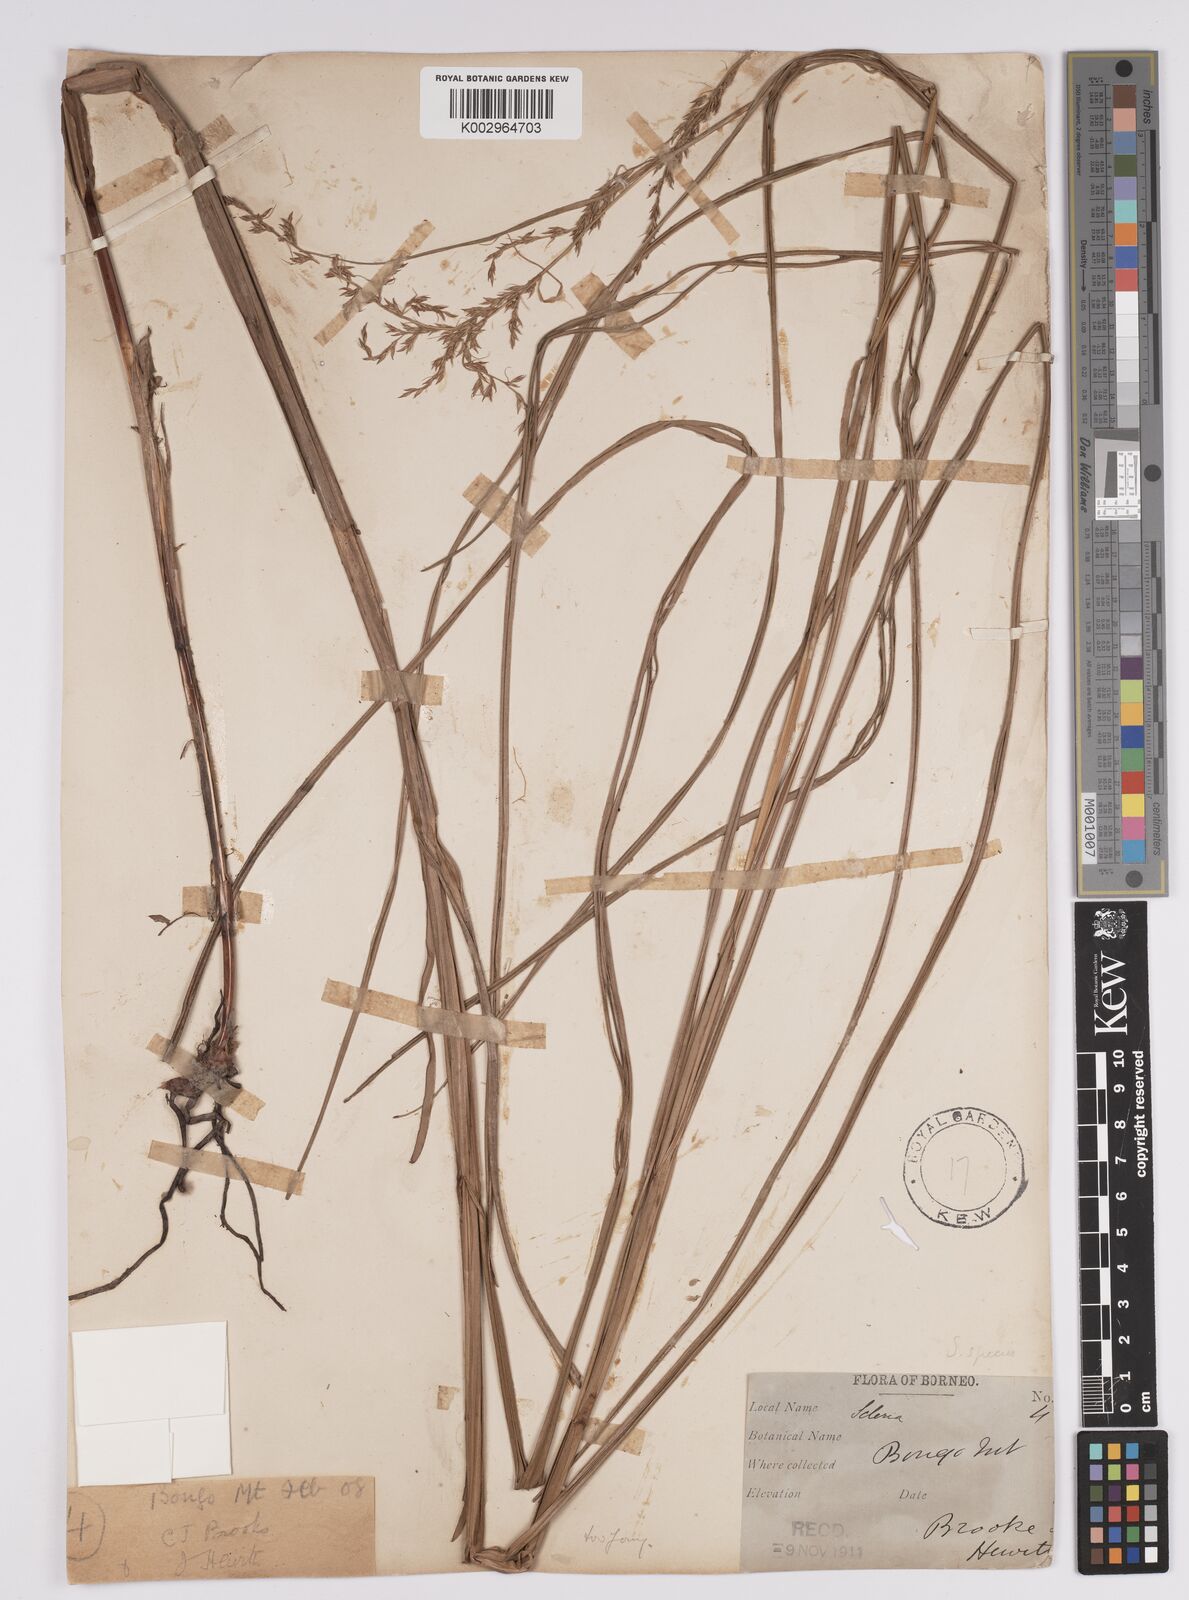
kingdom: Plantae
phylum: Tracheophyta
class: Liliopsida
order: Poales
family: Cyperaceae
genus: Scleria
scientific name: Scleria
